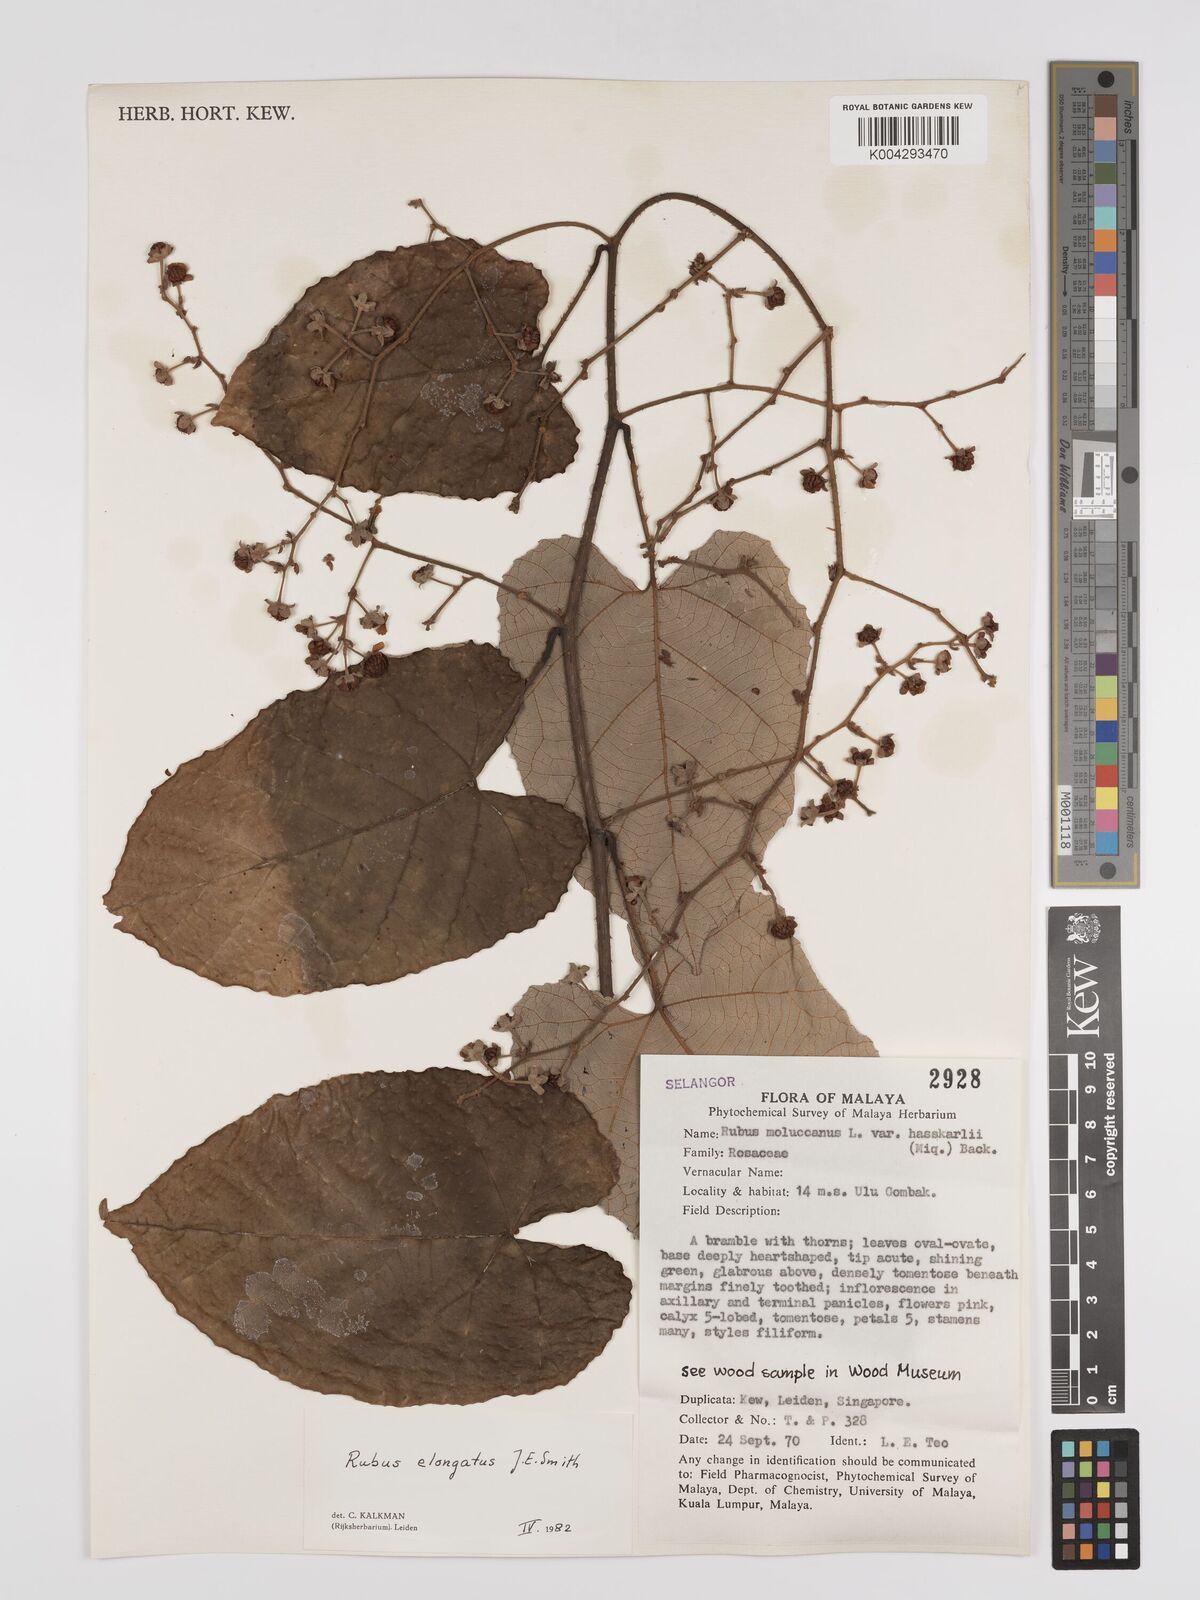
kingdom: Plantae
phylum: Tracheophyta
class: Magnoliopsida
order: Rosales
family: Rosaceae
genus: Rubus
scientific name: Rubus
